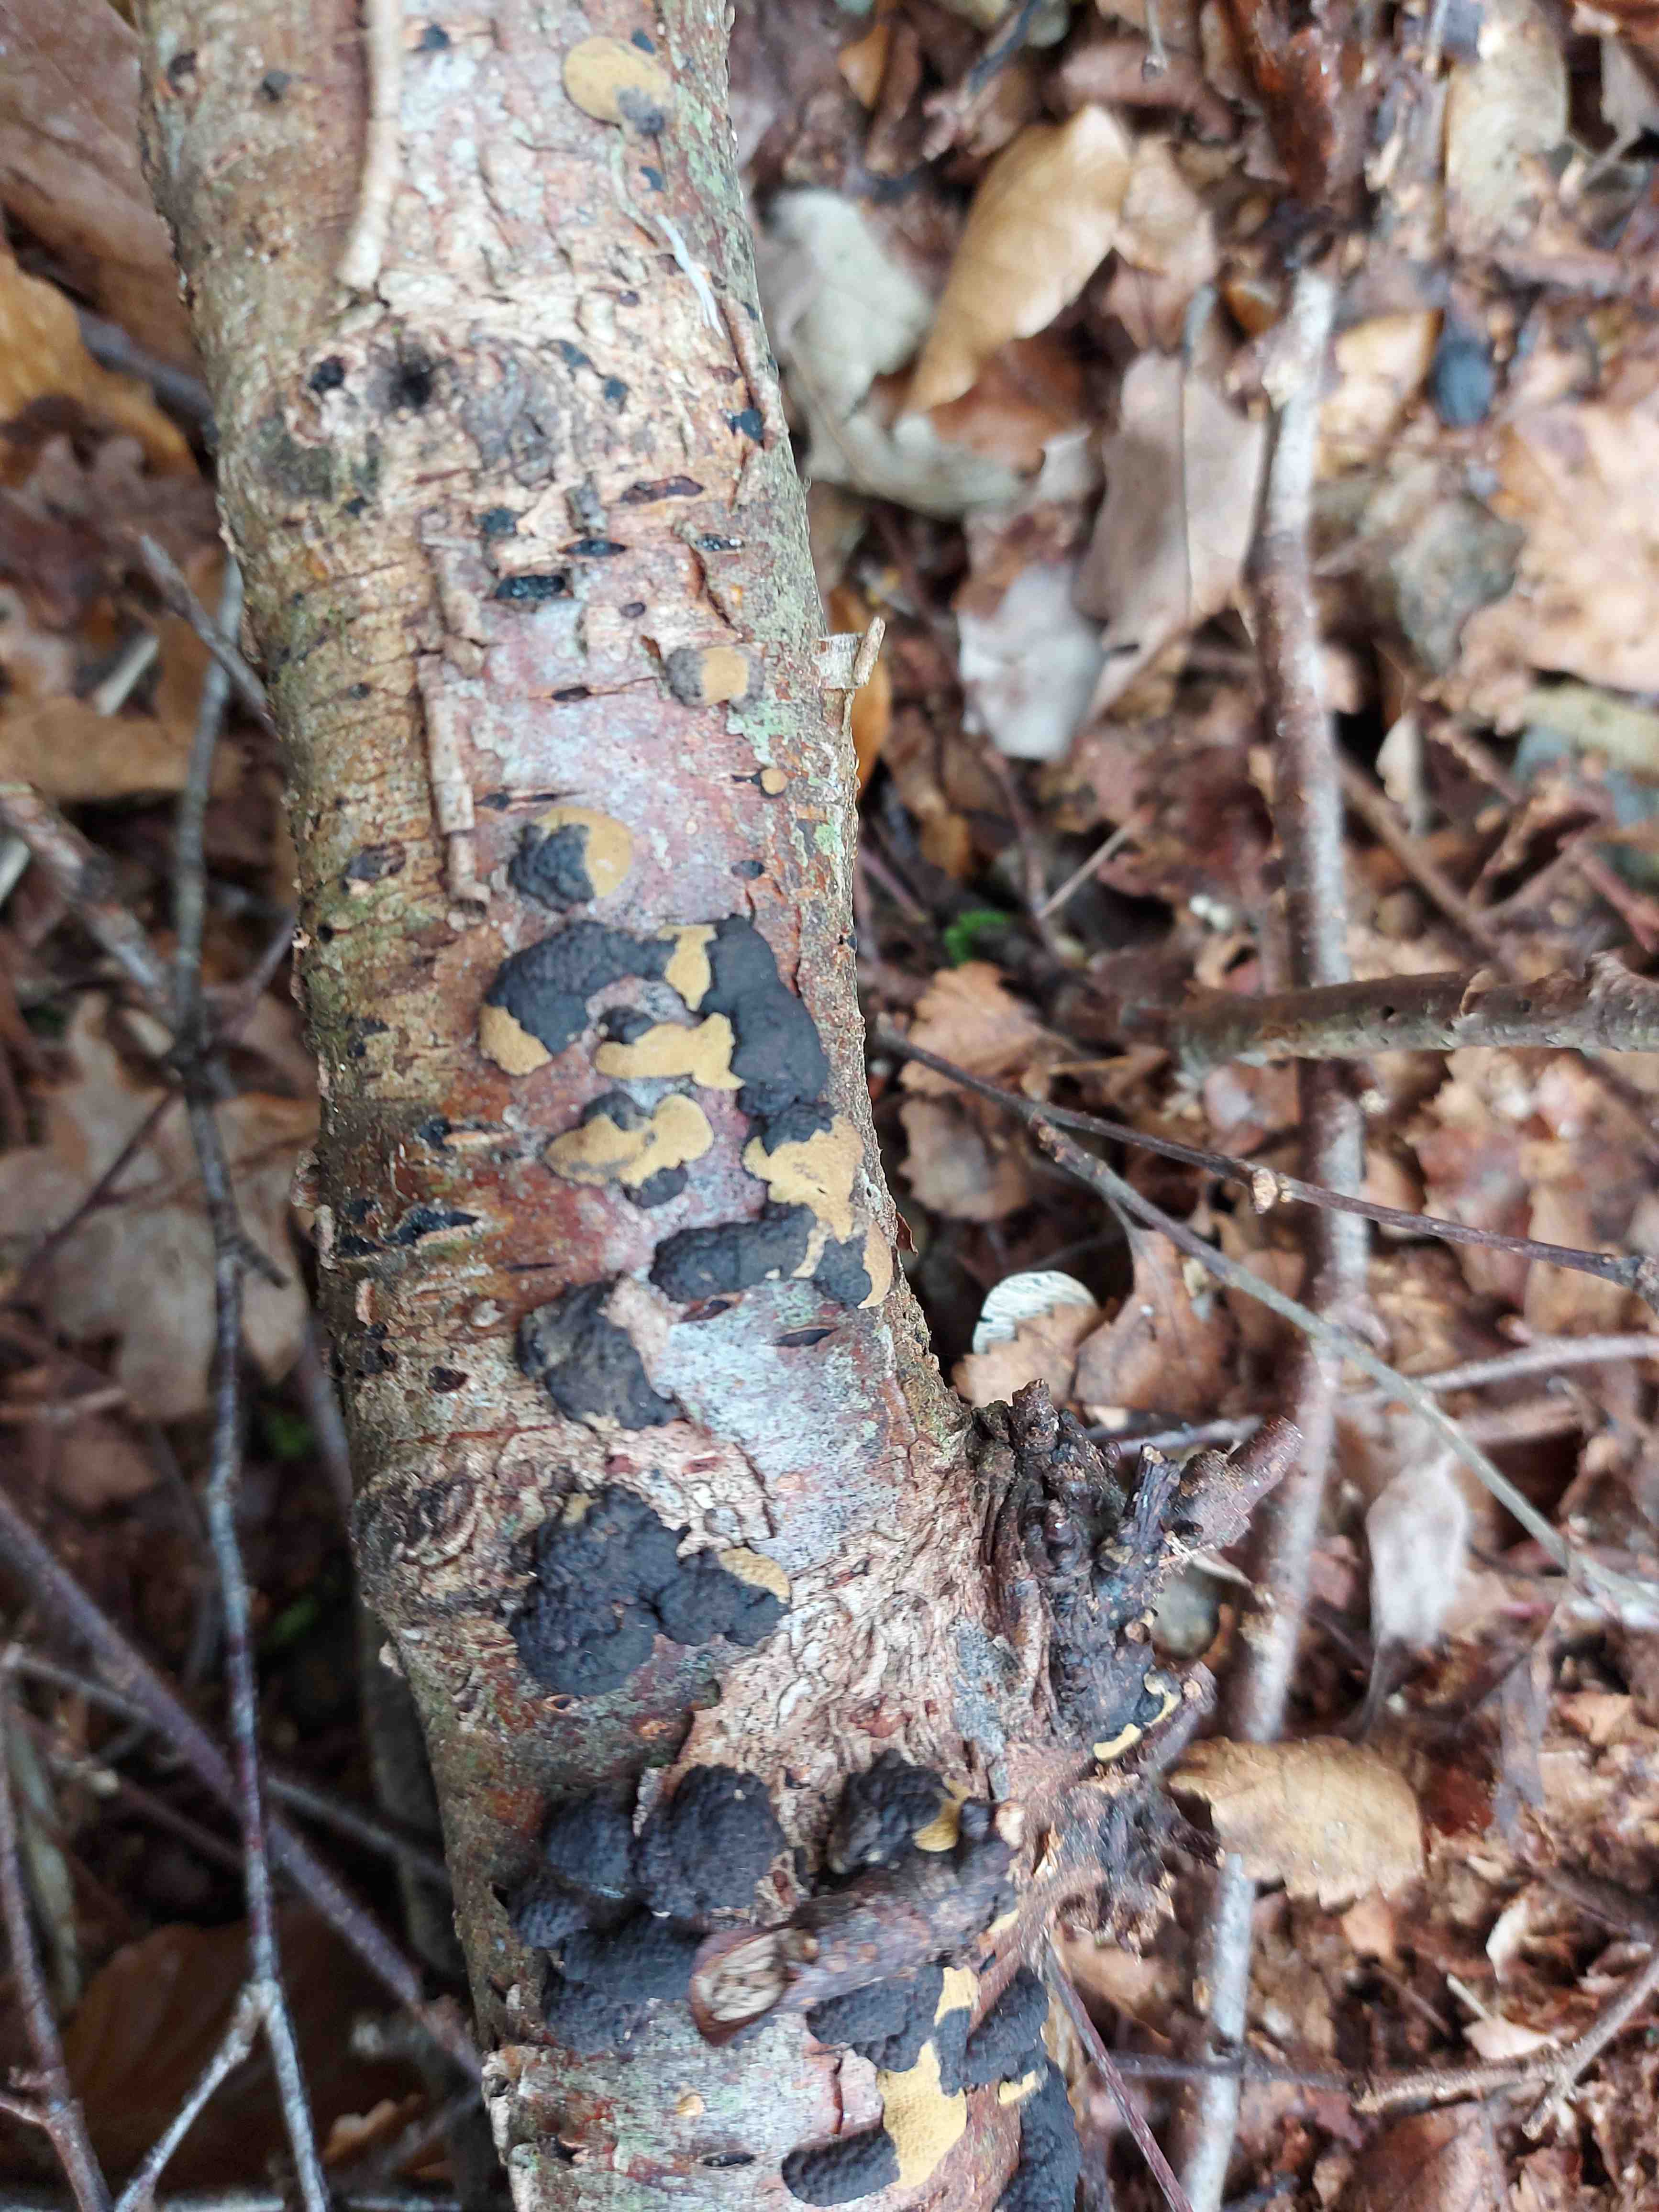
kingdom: Fungi
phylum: Ascomycota
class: Sordariomycetes
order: Xylariales
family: Hypoxylaceae
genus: Jackrogersella
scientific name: Jackrogersella multiformis
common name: foranderlig kulbær
